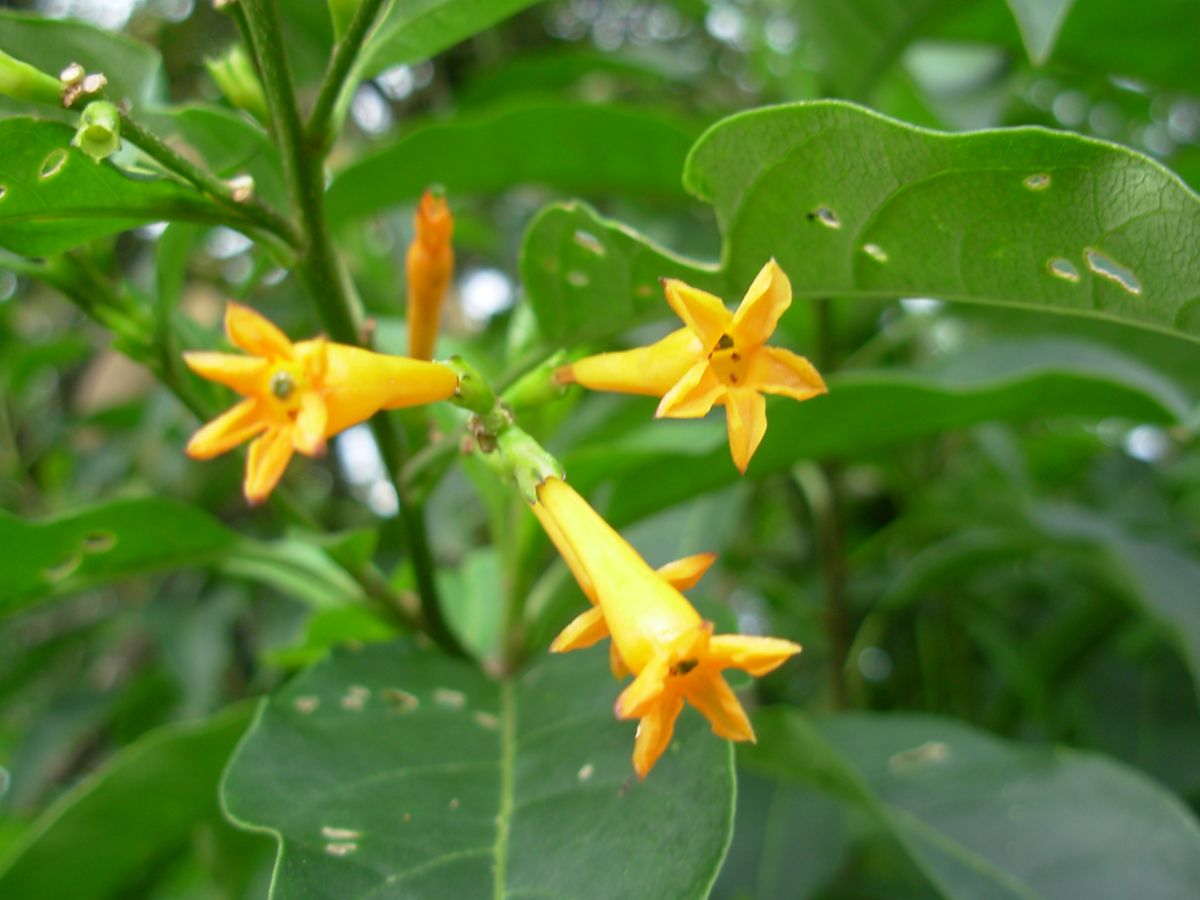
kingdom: Plantae
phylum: Tracheophyta
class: Magnoliopsida
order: Solanales
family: Solanaceae
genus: Cestrum
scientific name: Cestrum aurantiacum
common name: Orange cestrum
